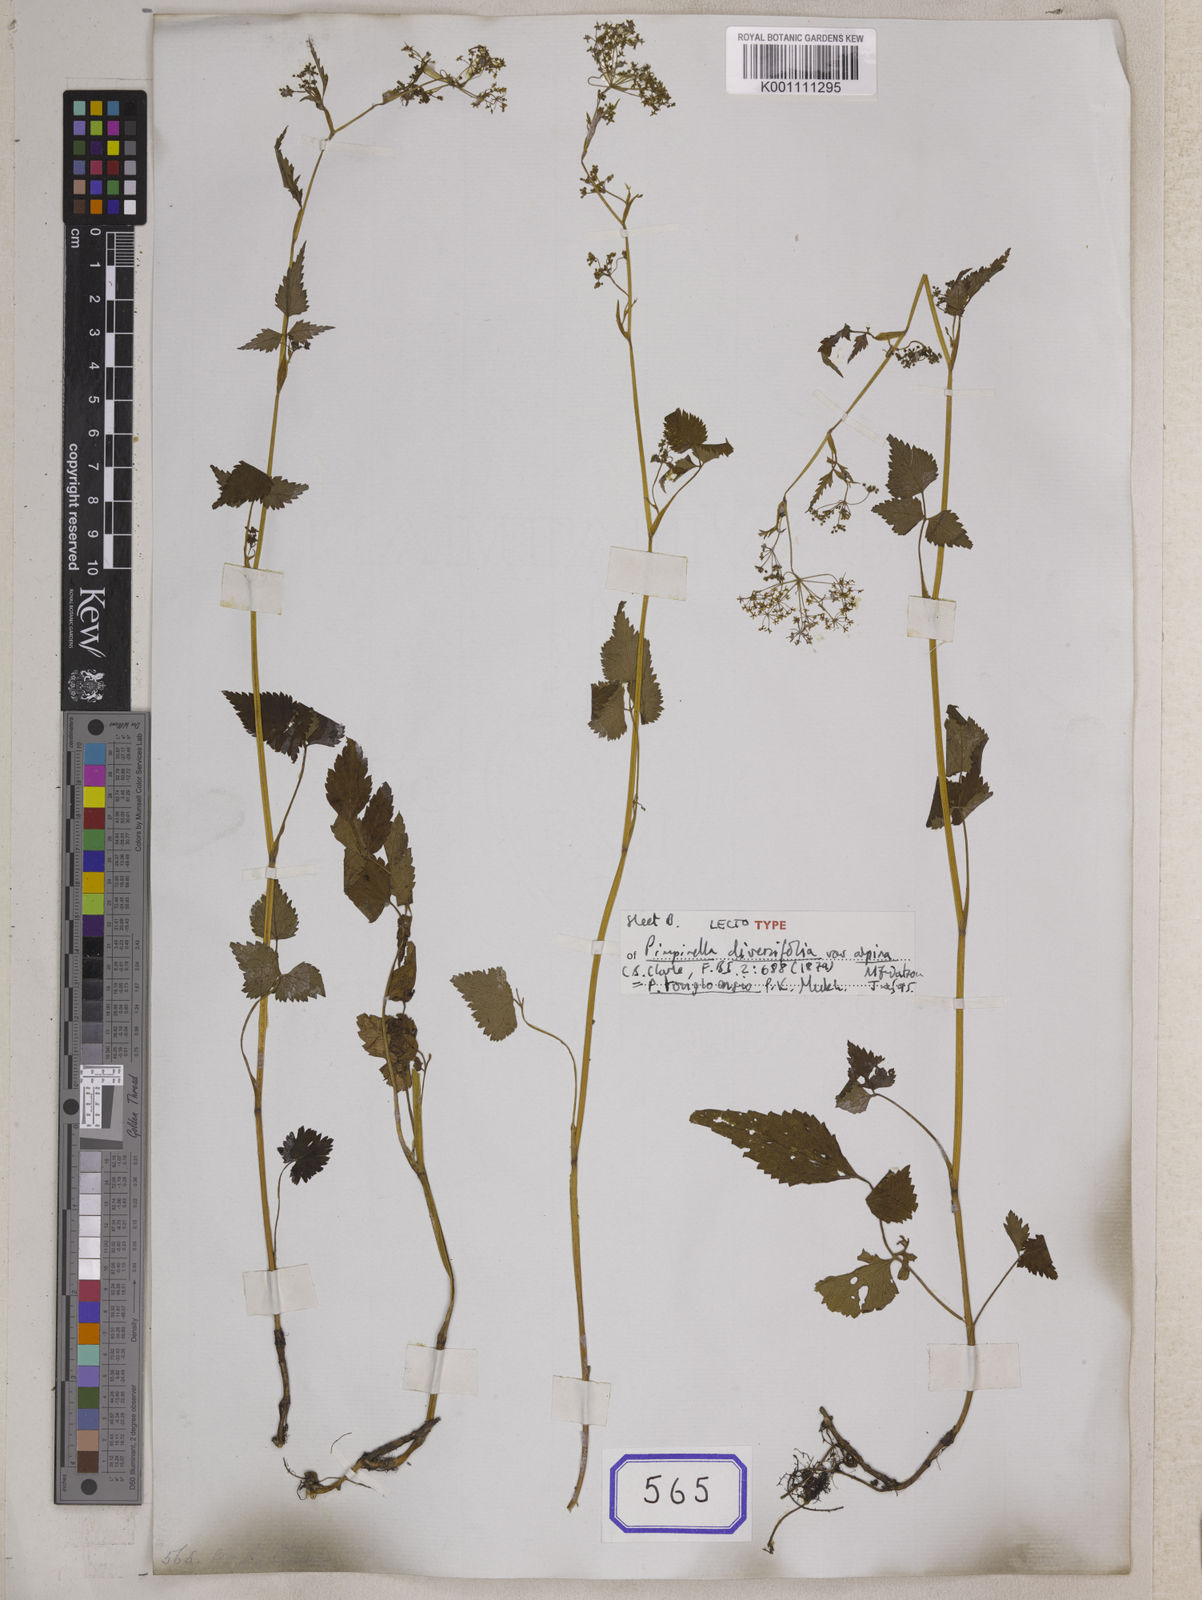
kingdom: Plantae
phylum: Tracheophyta
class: Magnoliopsida
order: Apiales
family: Apiaceae
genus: Pimpinella
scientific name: Pimpinella tongloensis
